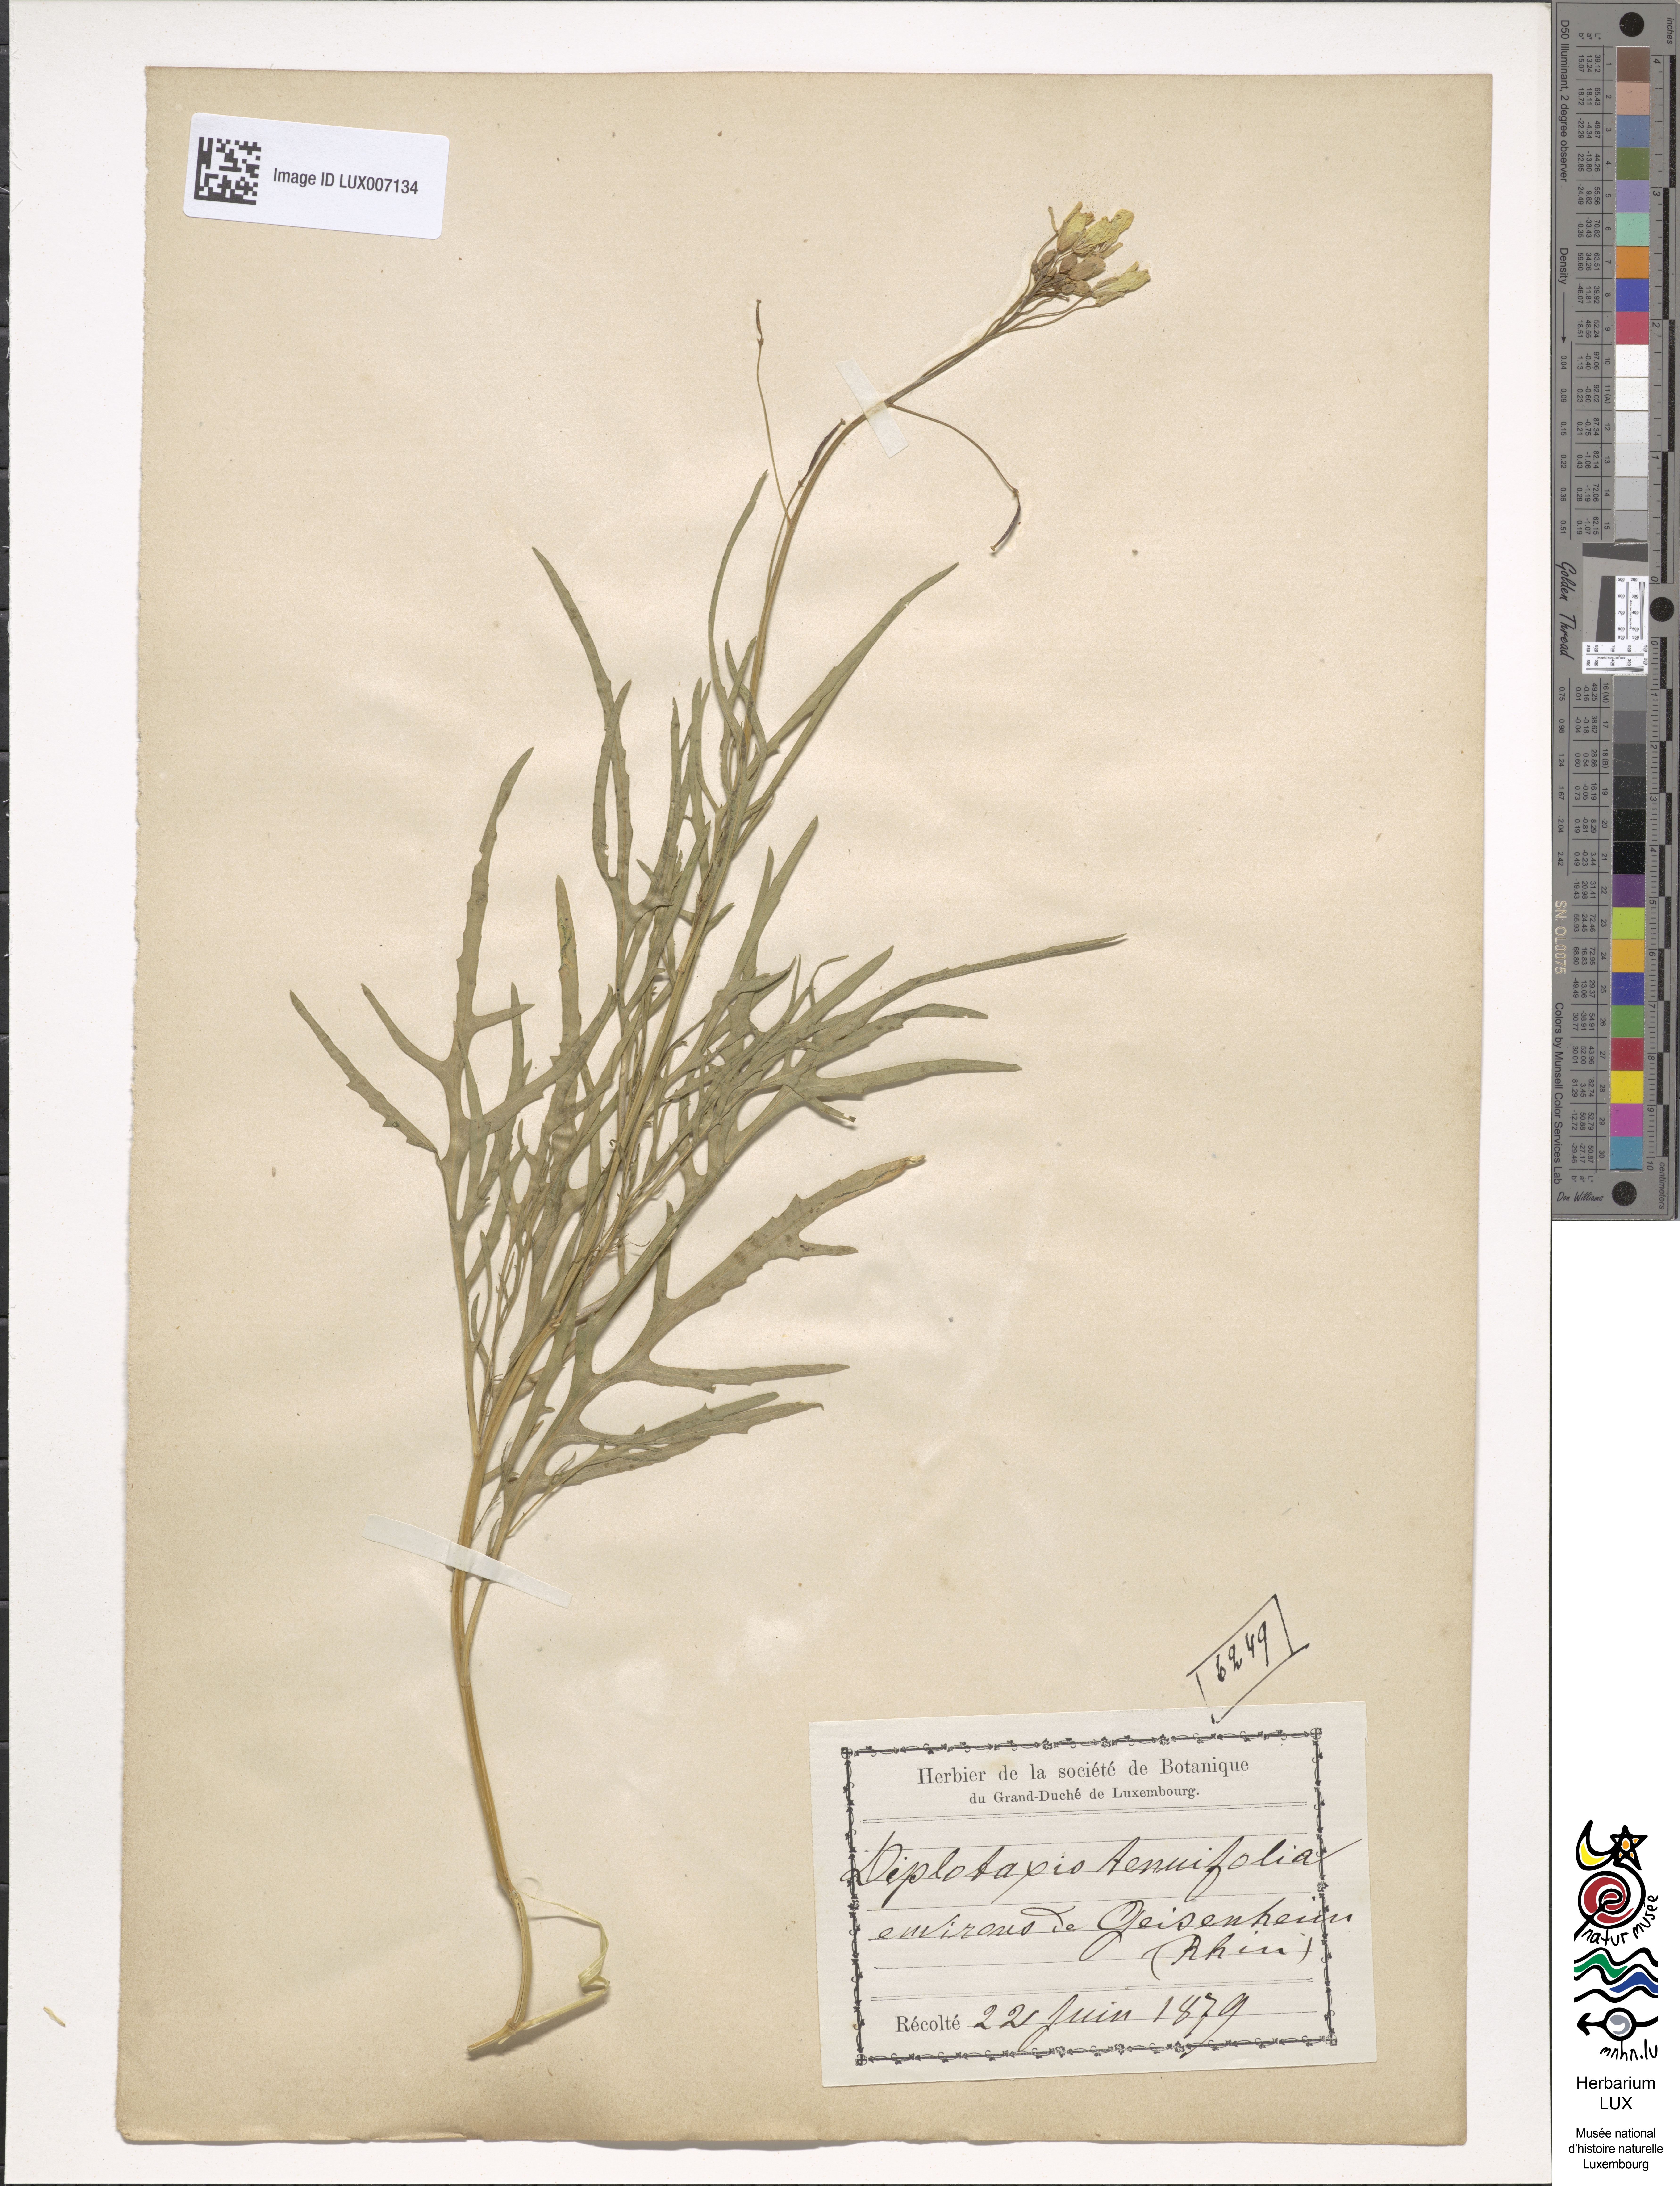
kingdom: Plantae
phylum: Tracheophyta
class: Magnoliopsida
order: Brassicales
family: Brassicaceae
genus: Diplotaxis
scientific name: Diplotaxis tenuifolia
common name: Perennial wall-rocket
